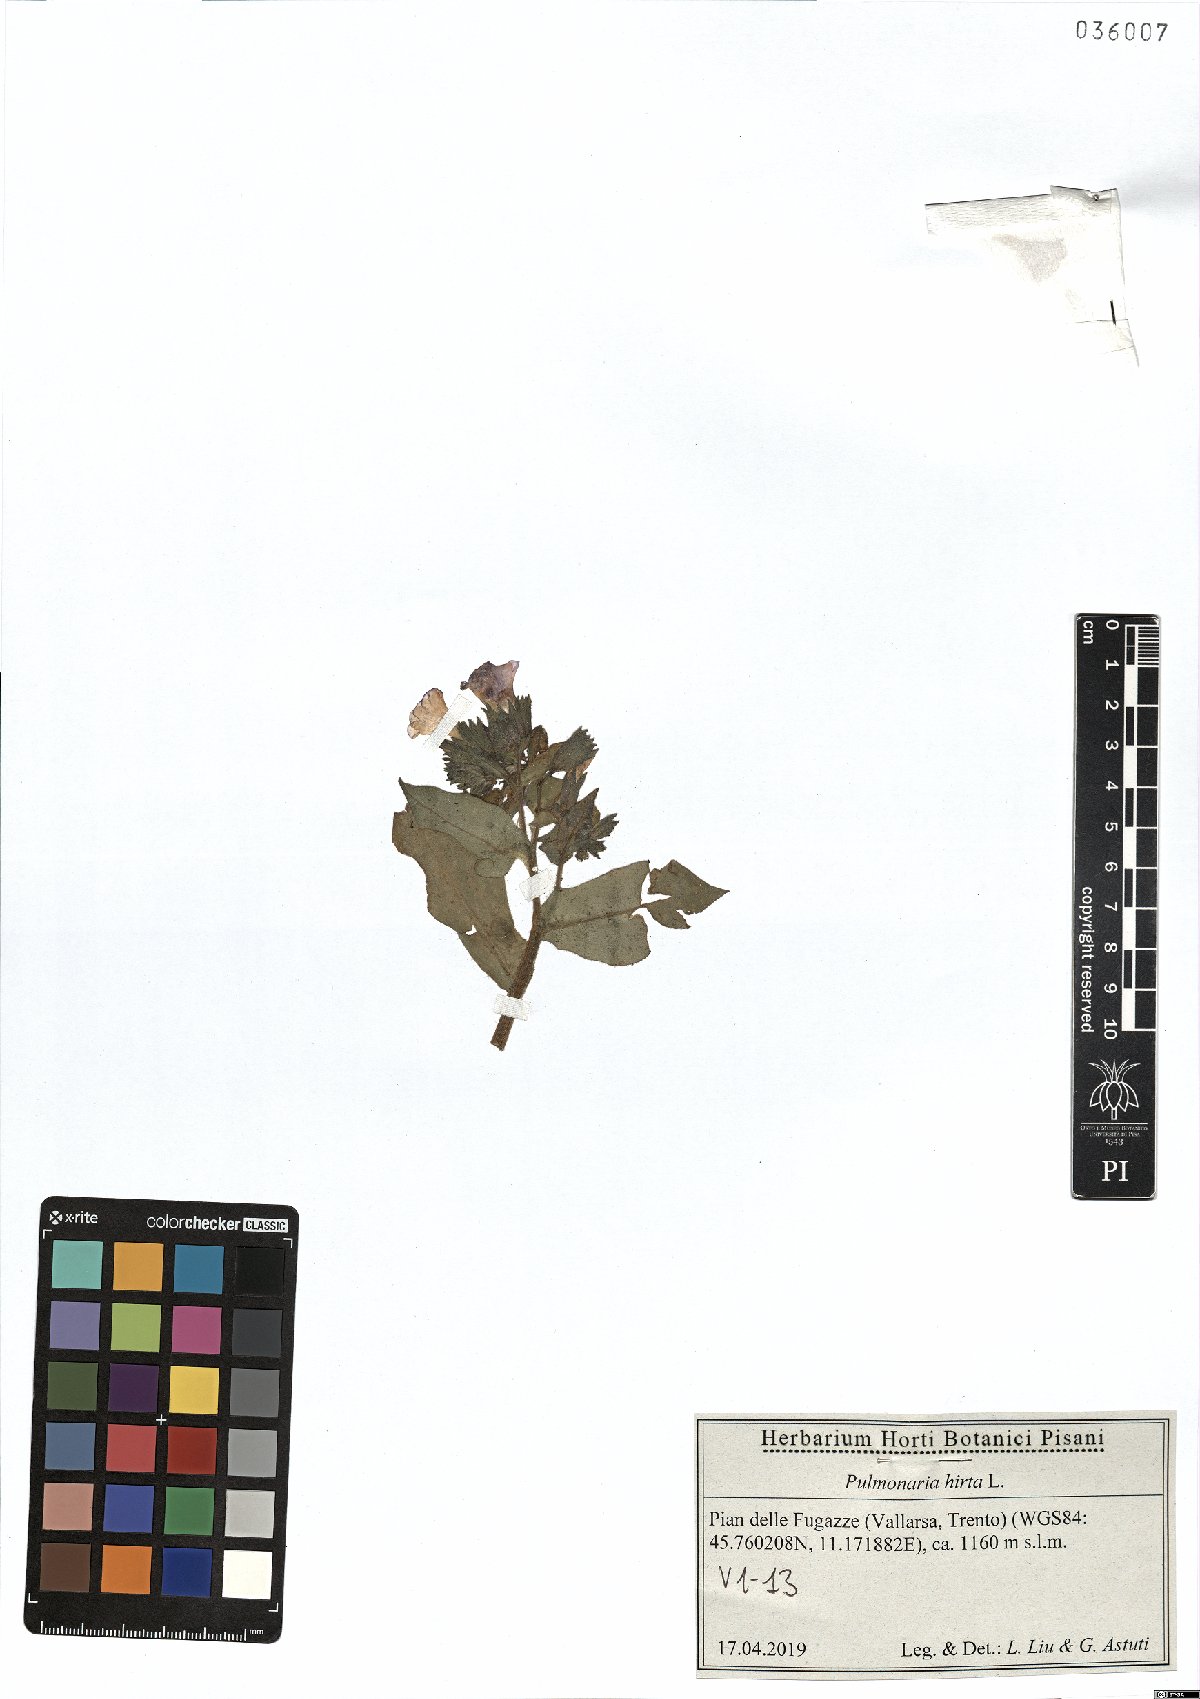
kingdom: Plantae
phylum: Tracheophyta
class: Magnoliopsida
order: Boraginales
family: Boraginaceae
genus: Pulmonaria
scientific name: Pulmonaria hirta
